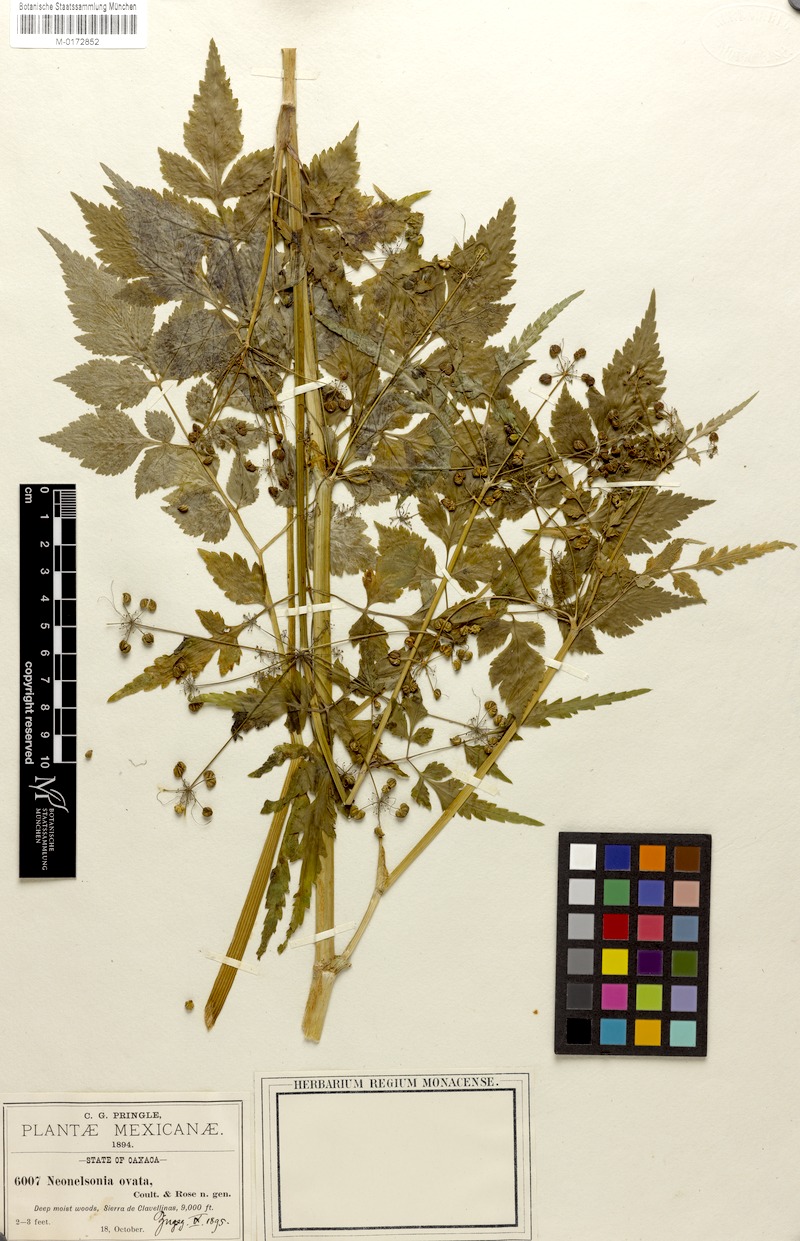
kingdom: Plantae
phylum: Tracheophyta
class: Magnoliopsida
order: Apiales
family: Apiaceae
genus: Neonelsonia
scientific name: Neonelsonia acuminata
